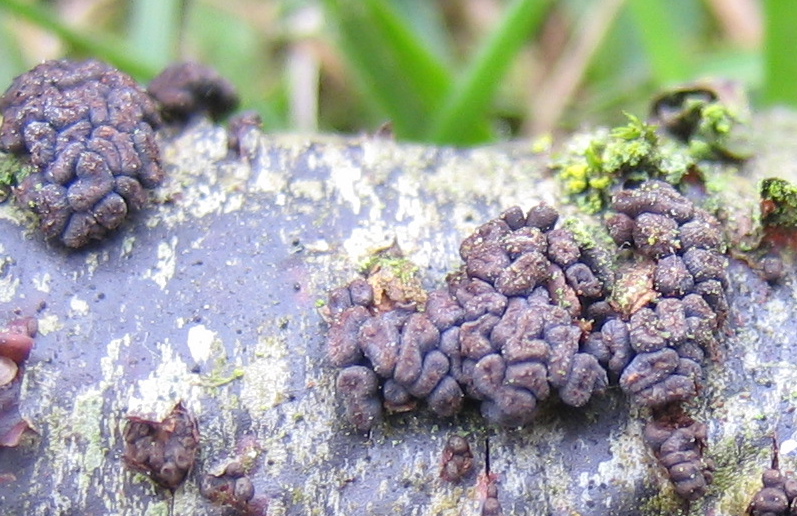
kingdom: Fungi
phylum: Ascomycota
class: Leotiomycetes
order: Helotiales
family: Godroniaceae
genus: Godronia
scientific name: Godronia ribis
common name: ribs-urneskive
